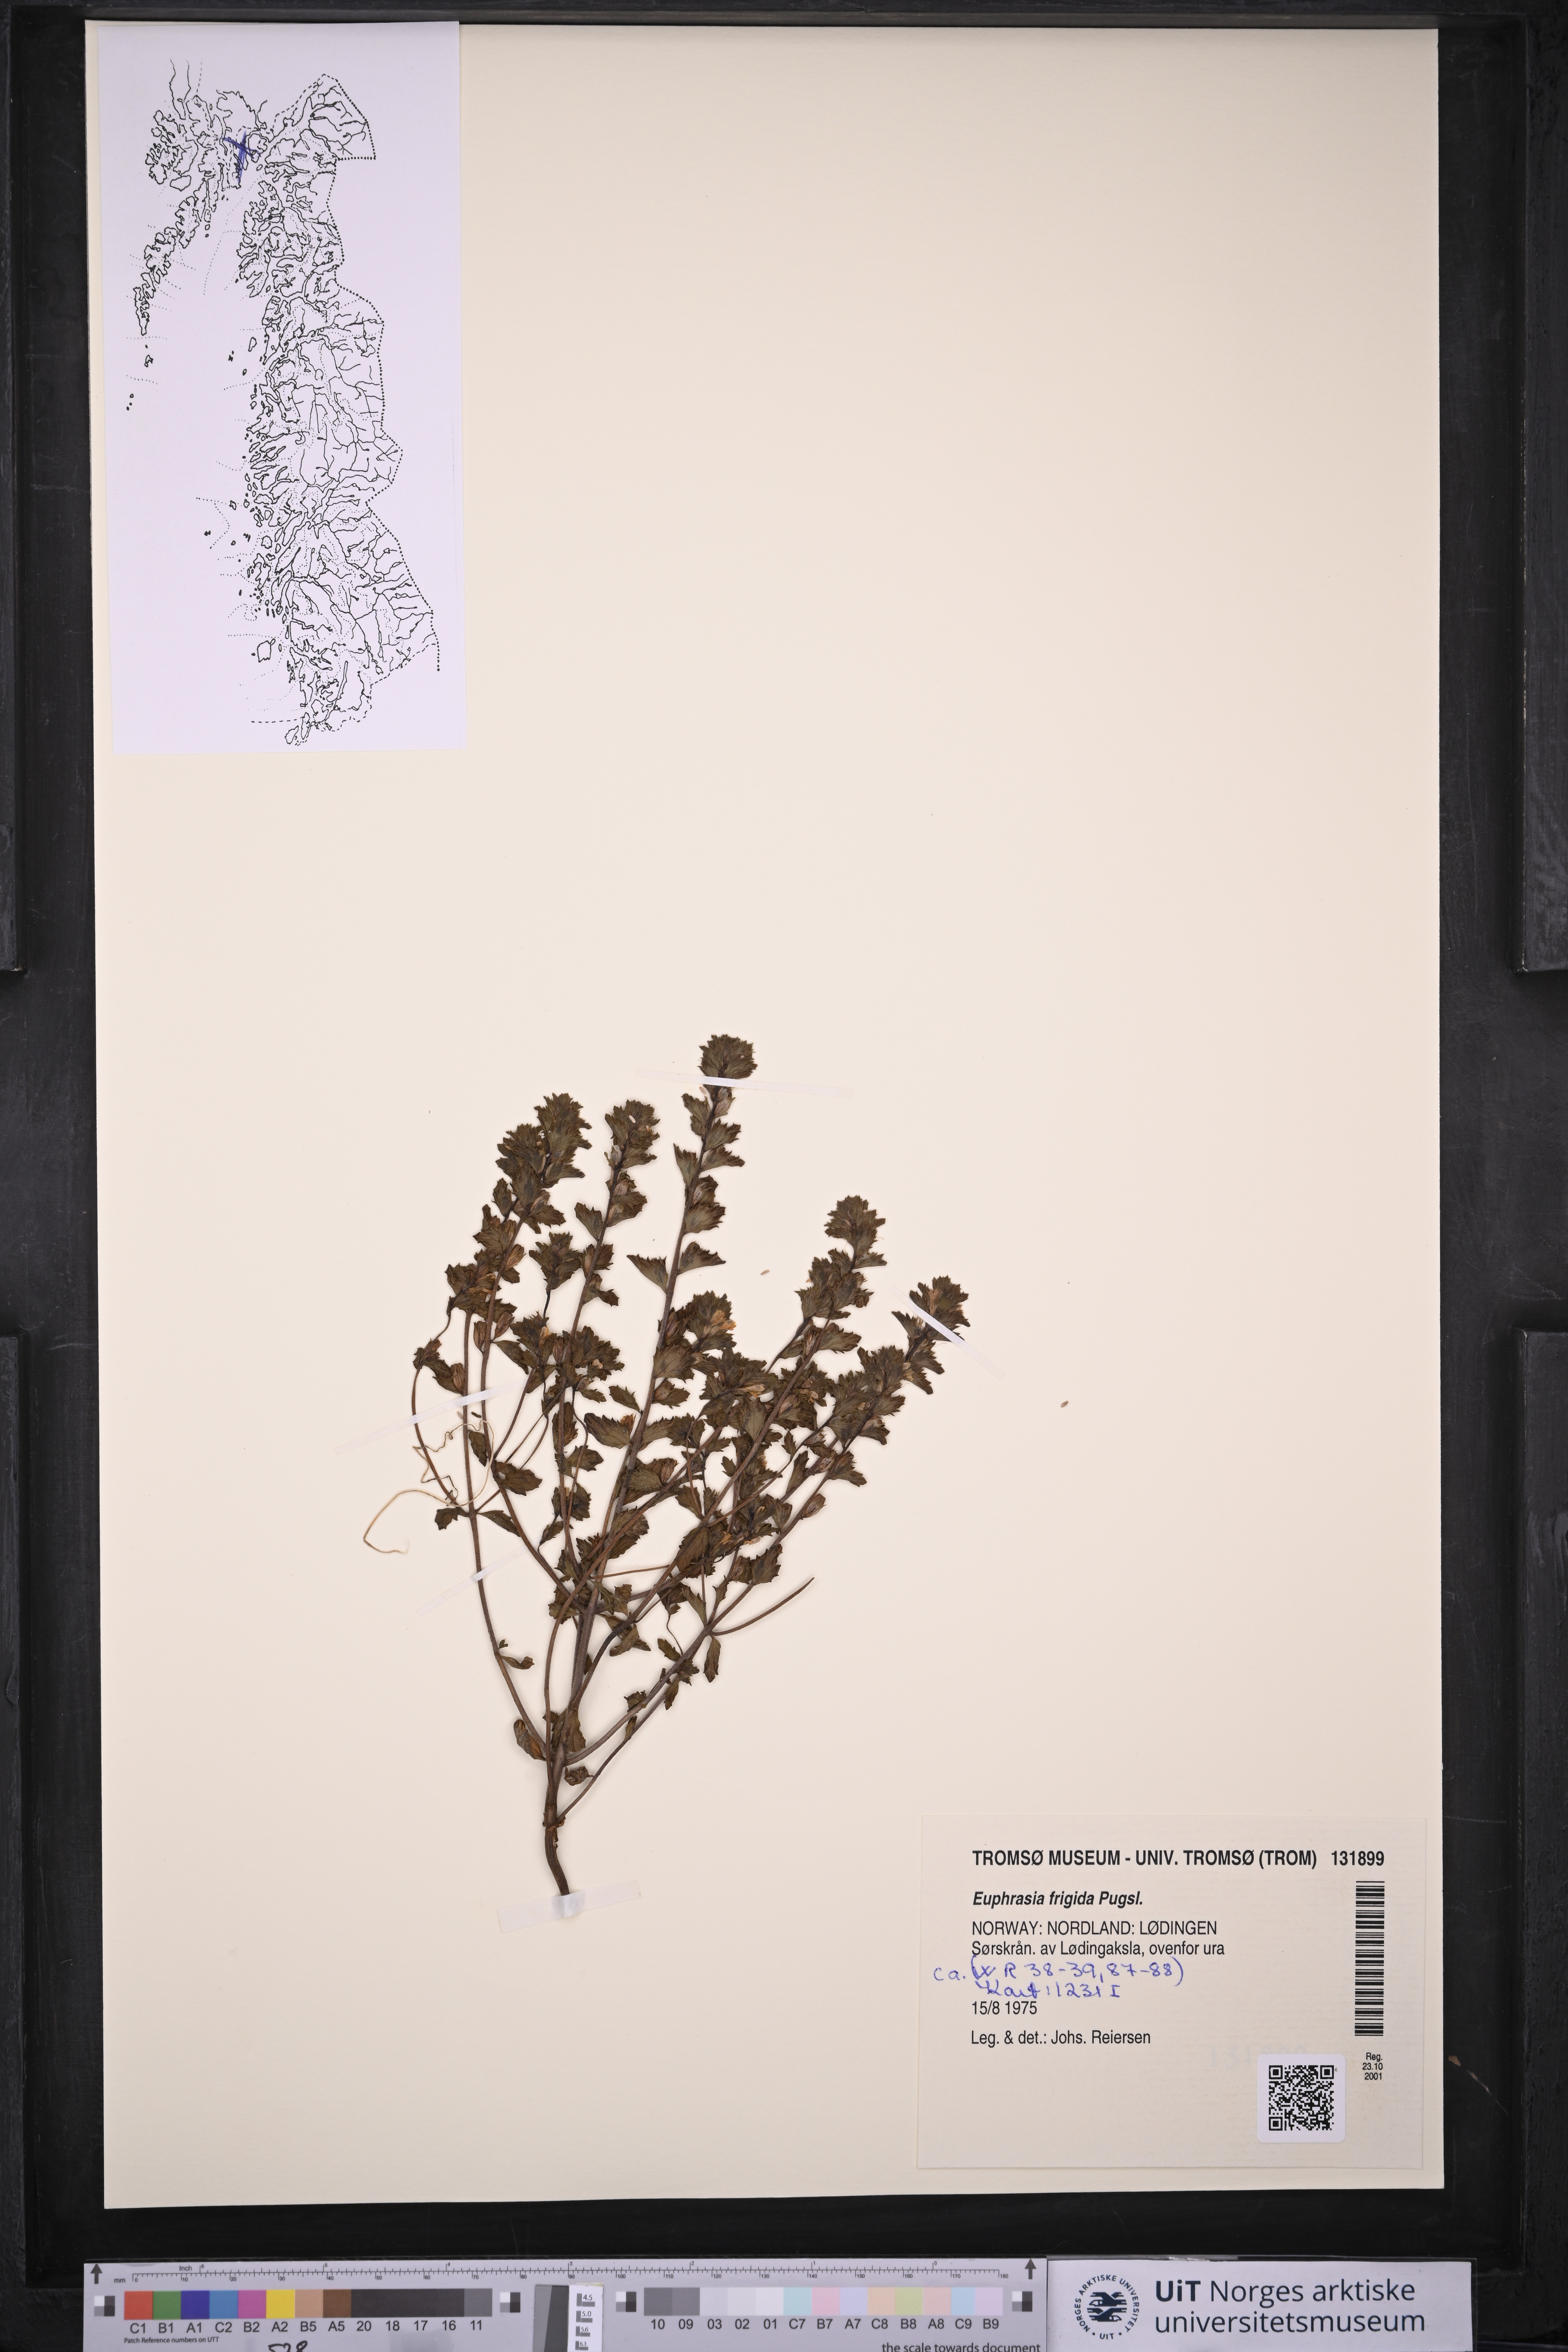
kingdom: Plantae
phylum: Tracheophyta
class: Magnoliopsida
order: Lamiales
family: Orobanchaceae
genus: Euphrasia
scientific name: Euphrasia frigida
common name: An eyebright
